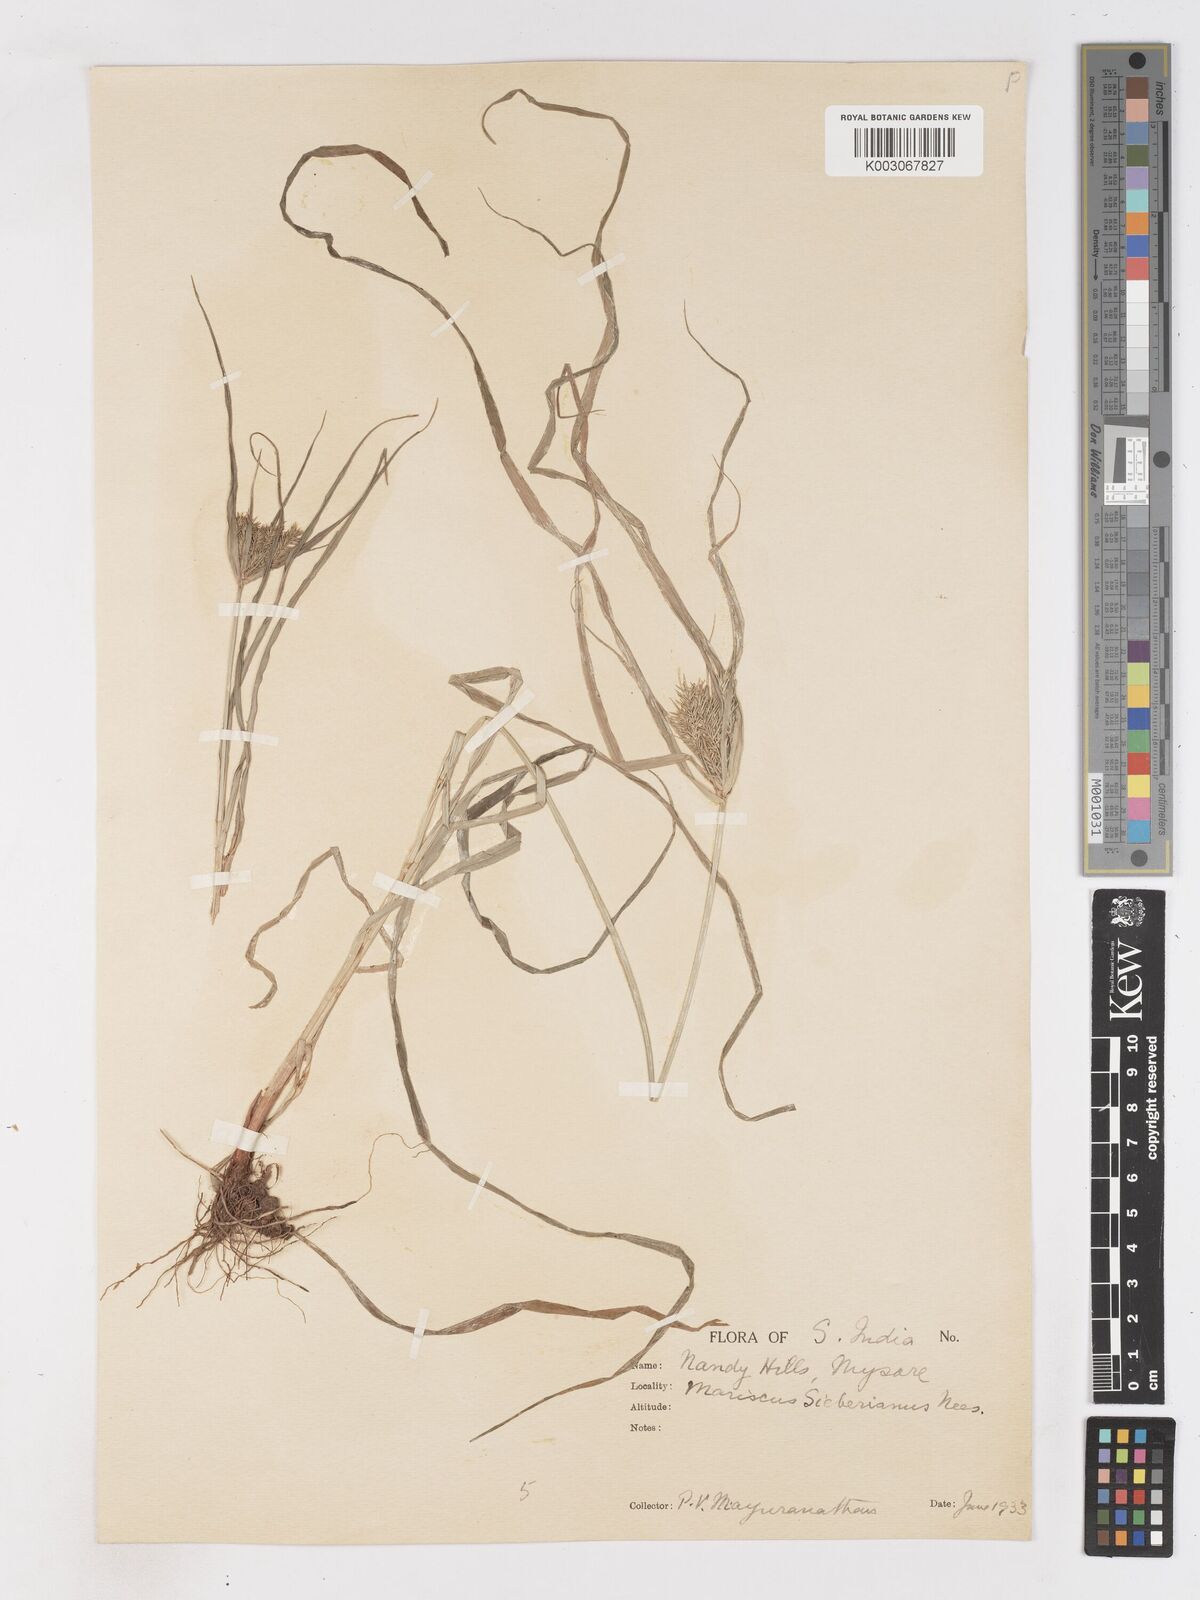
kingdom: Plantae
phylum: Tracheophyta
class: Liliopsida
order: Poales
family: Cyperaceae
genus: Cyperus
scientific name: Cyperus cyperoides
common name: Pacific island flat sedge
